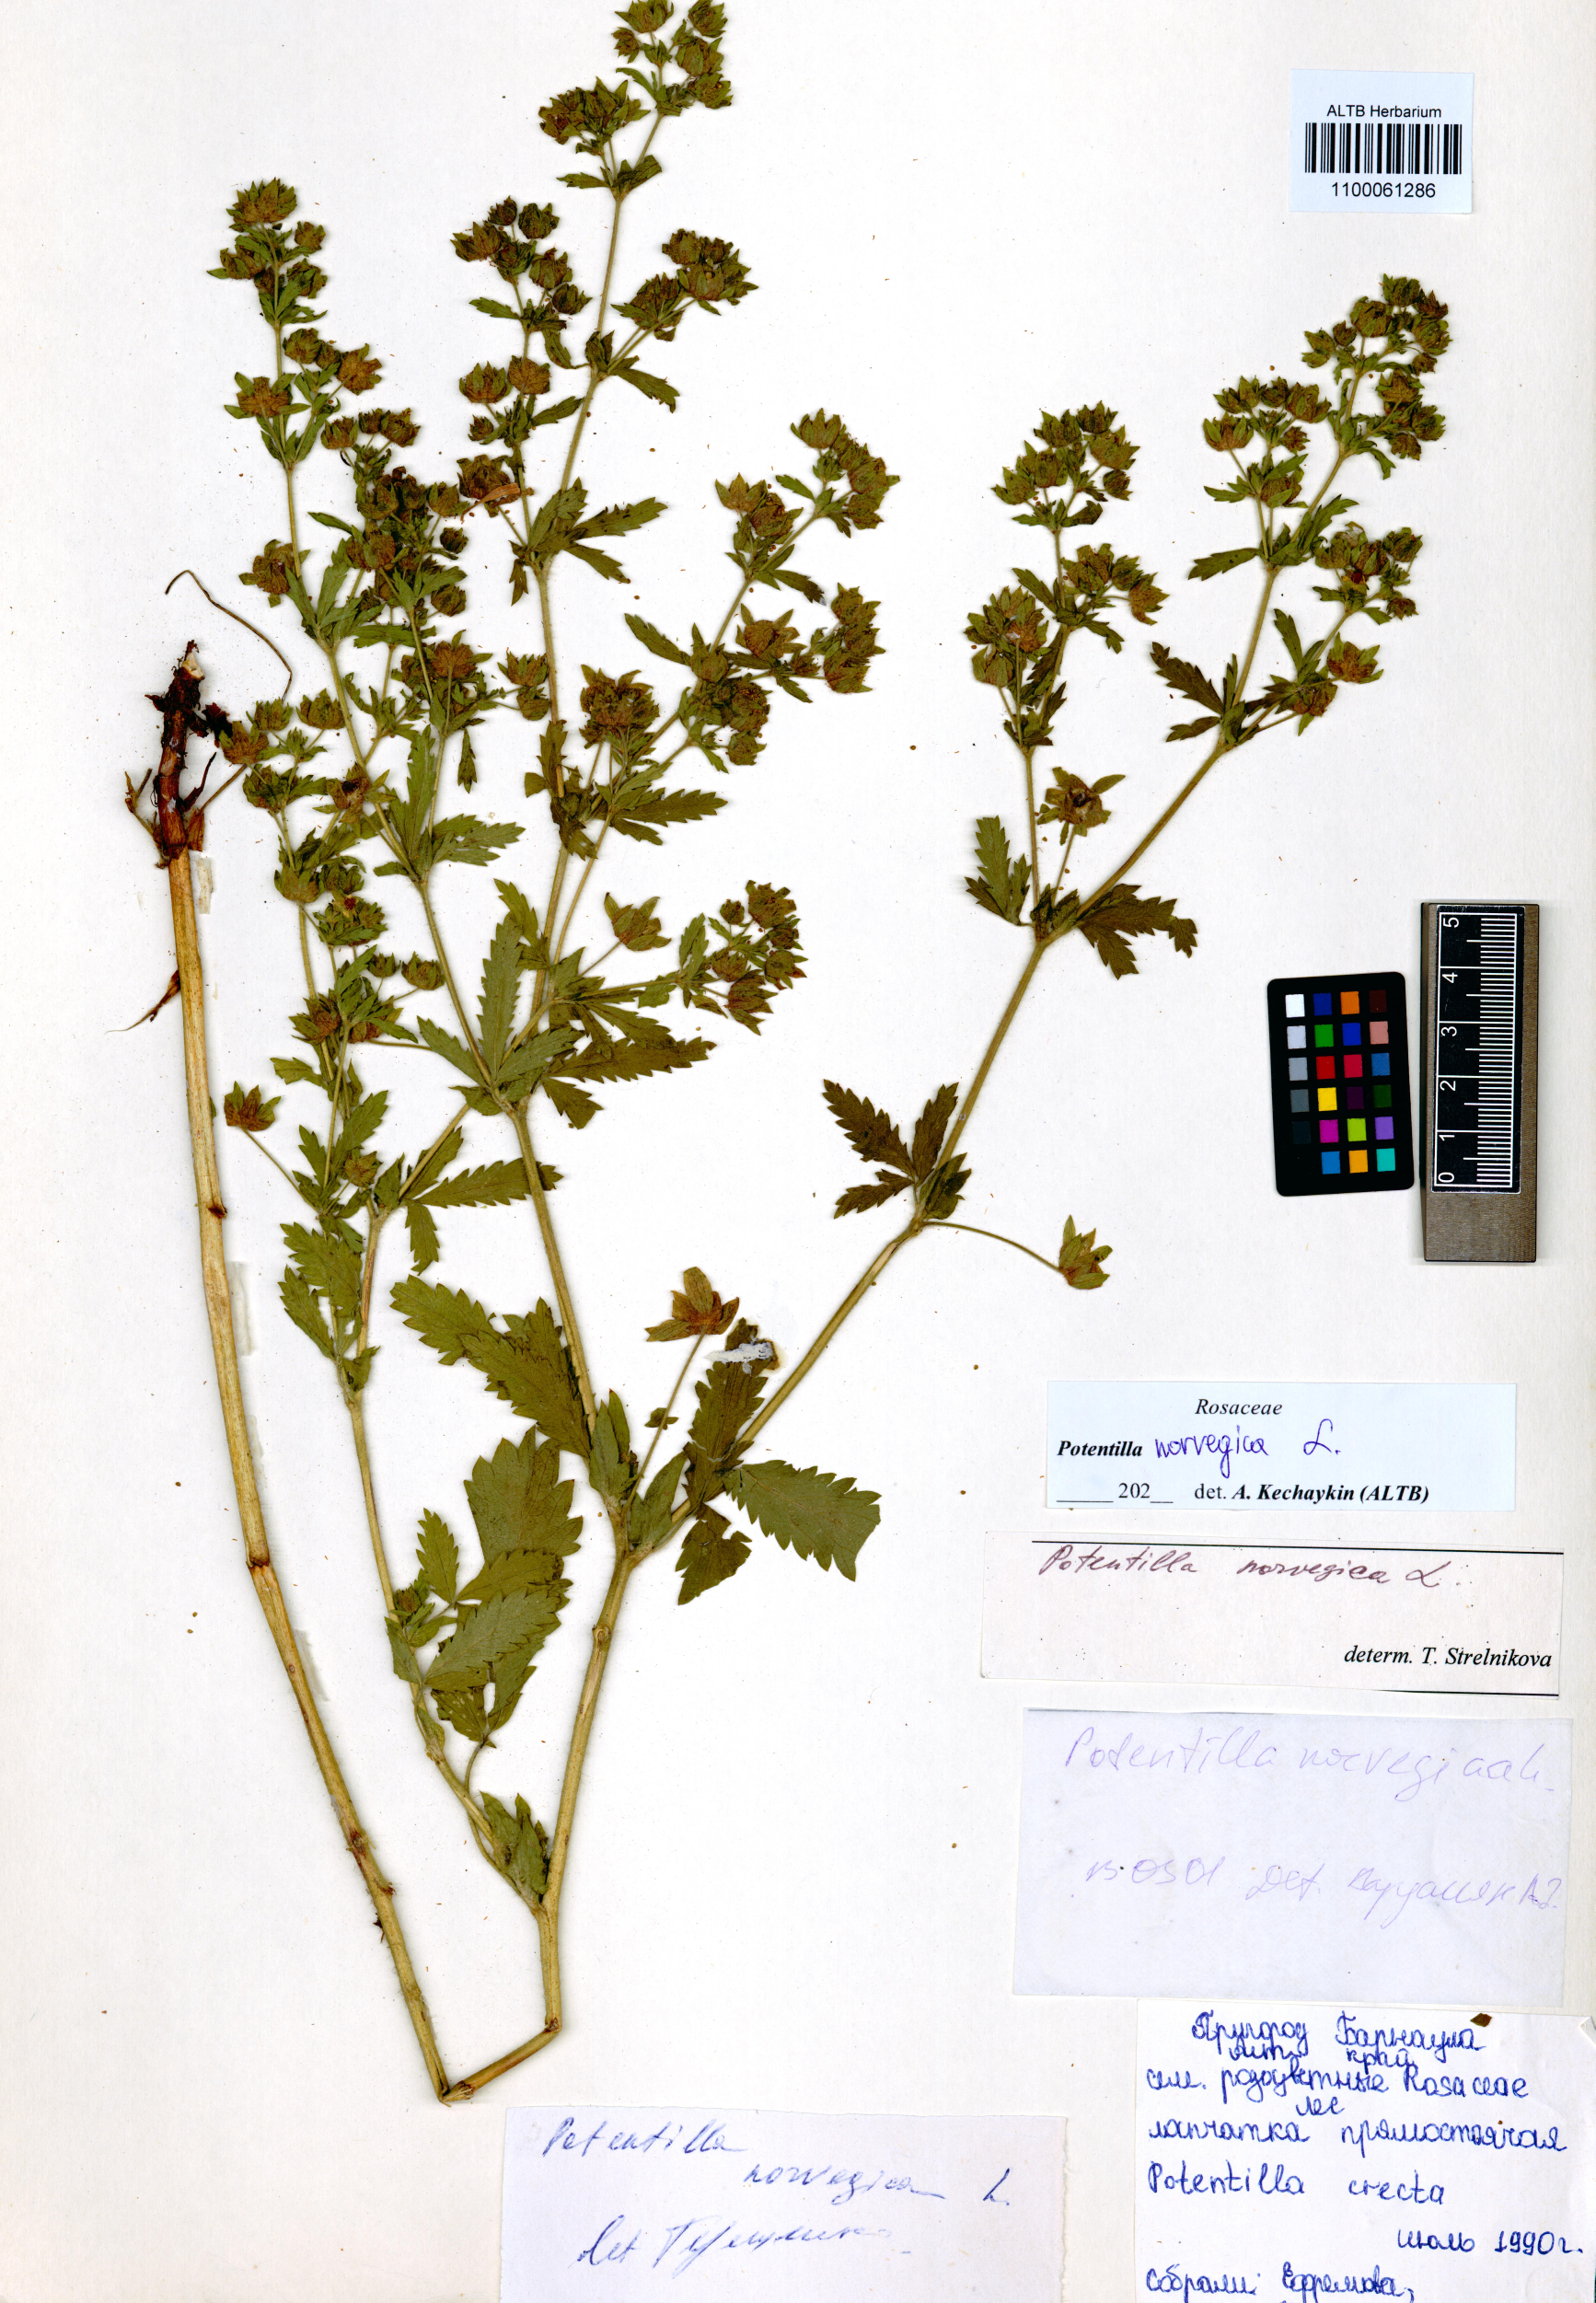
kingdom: Plantae
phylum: Tracheophyta
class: Magnoliopsida
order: Rosales
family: Rosaceae
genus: Potentilla
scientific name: Potentilla norvegica
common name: Ternate-leaved cinquefoil
